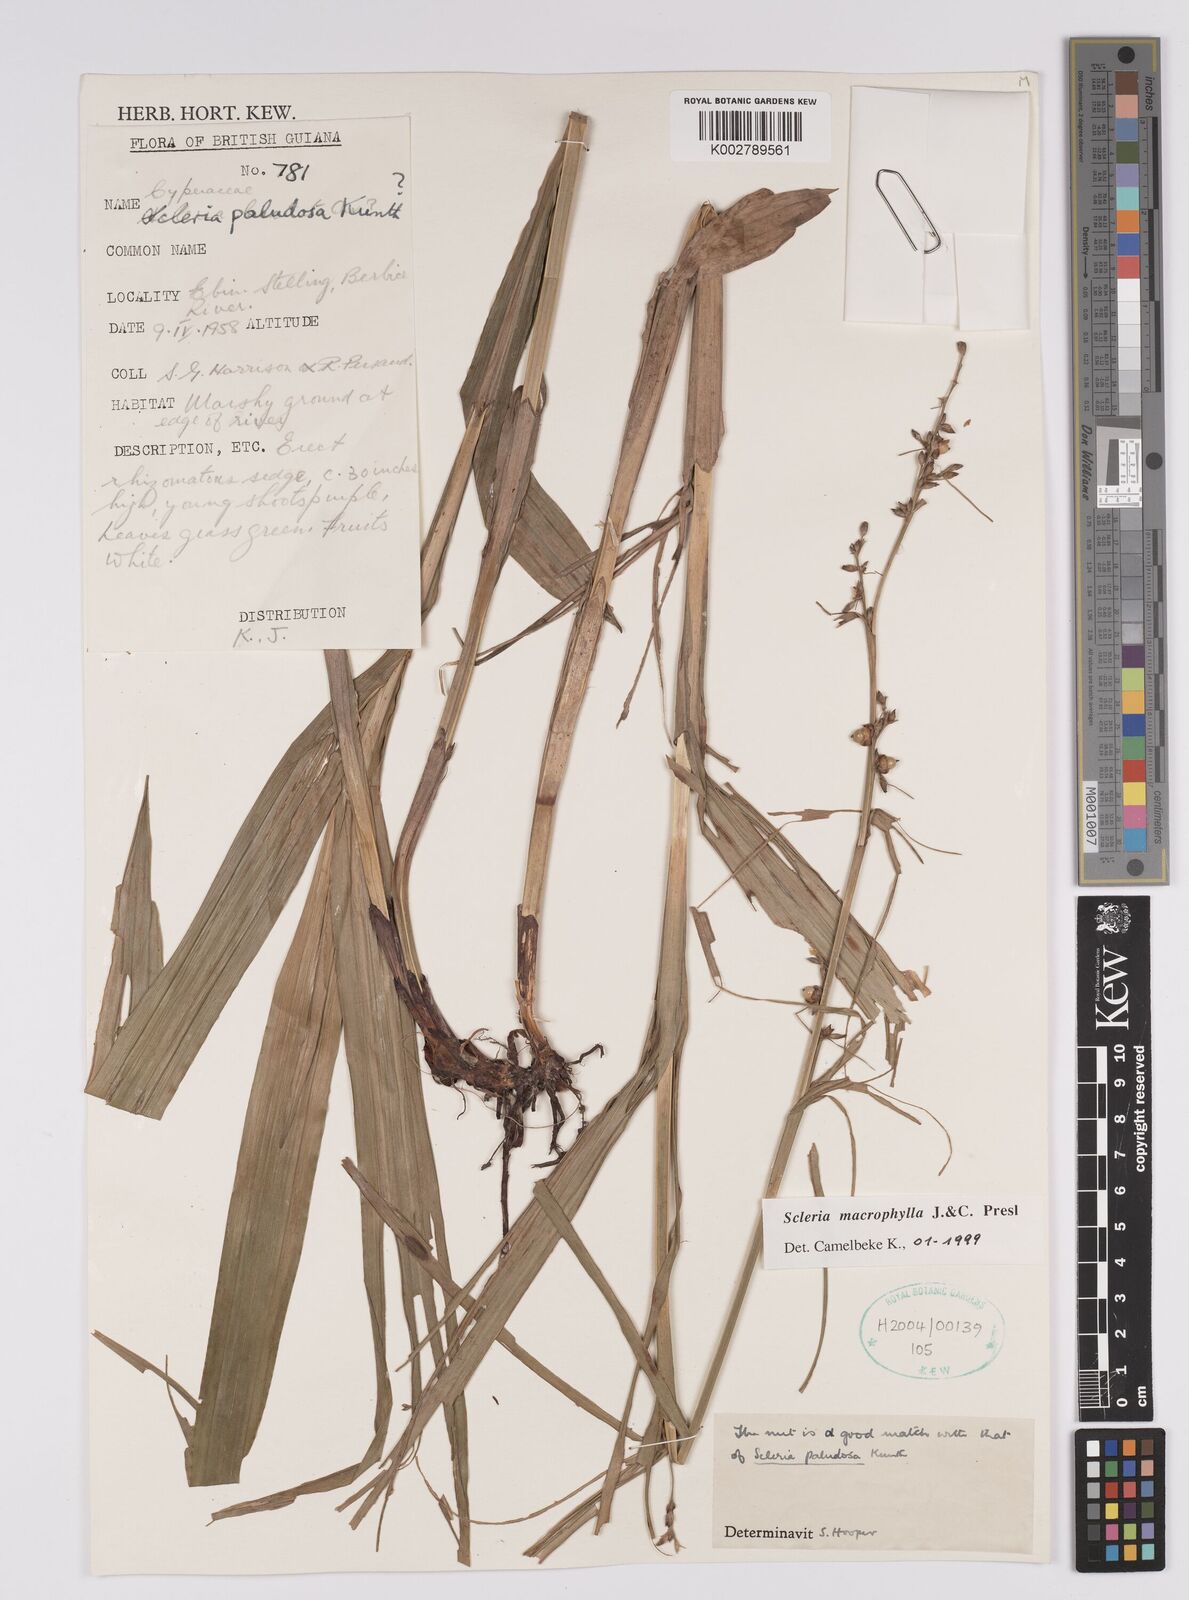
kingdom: Plantae
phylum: Tracheophyta
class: Liliopsida
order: Poales
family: Cyperaceae
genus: Scleria
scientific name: Scleria macrophylla
